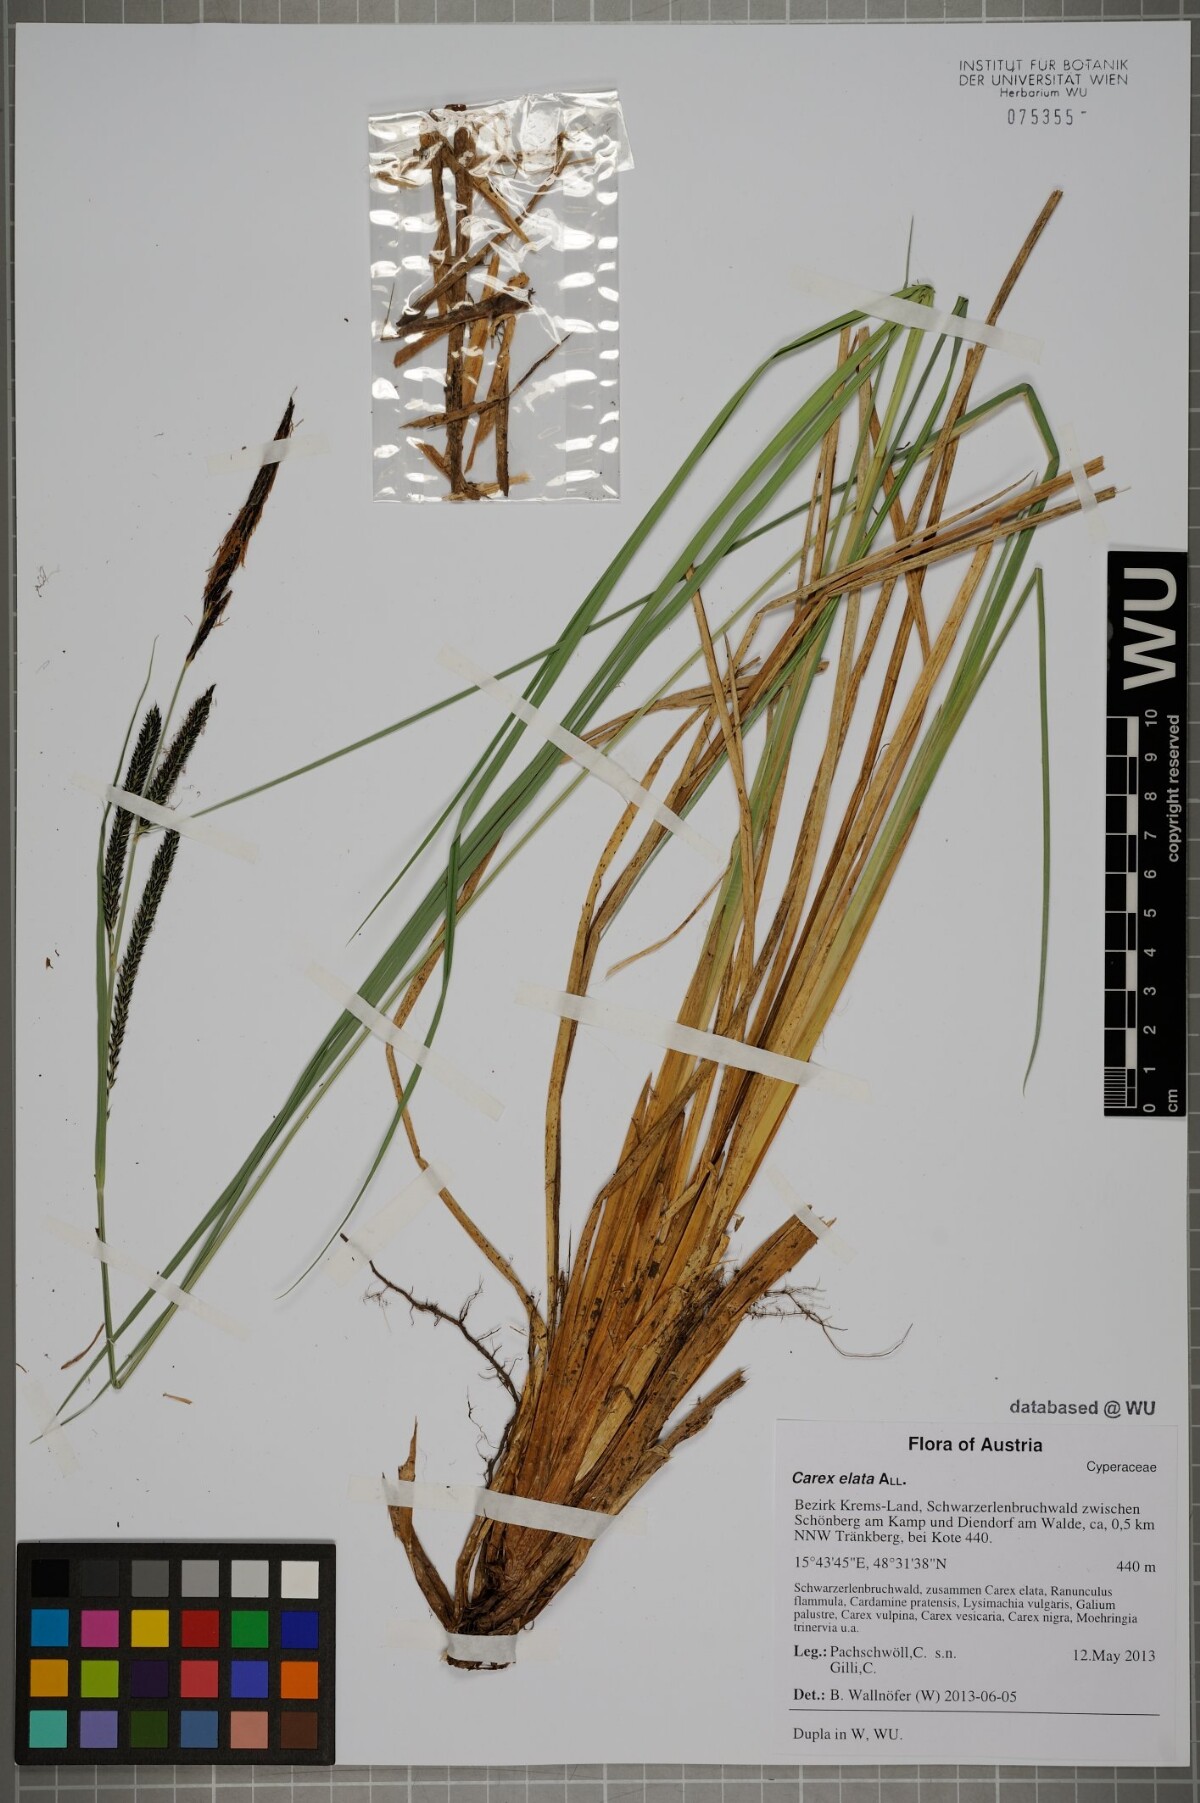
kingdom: Plantae
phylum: Tracheophyta
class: Liliopsida
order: Poales
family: Cyperaceae
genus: Carex
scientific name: Carex elata
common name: Tufted sedge
